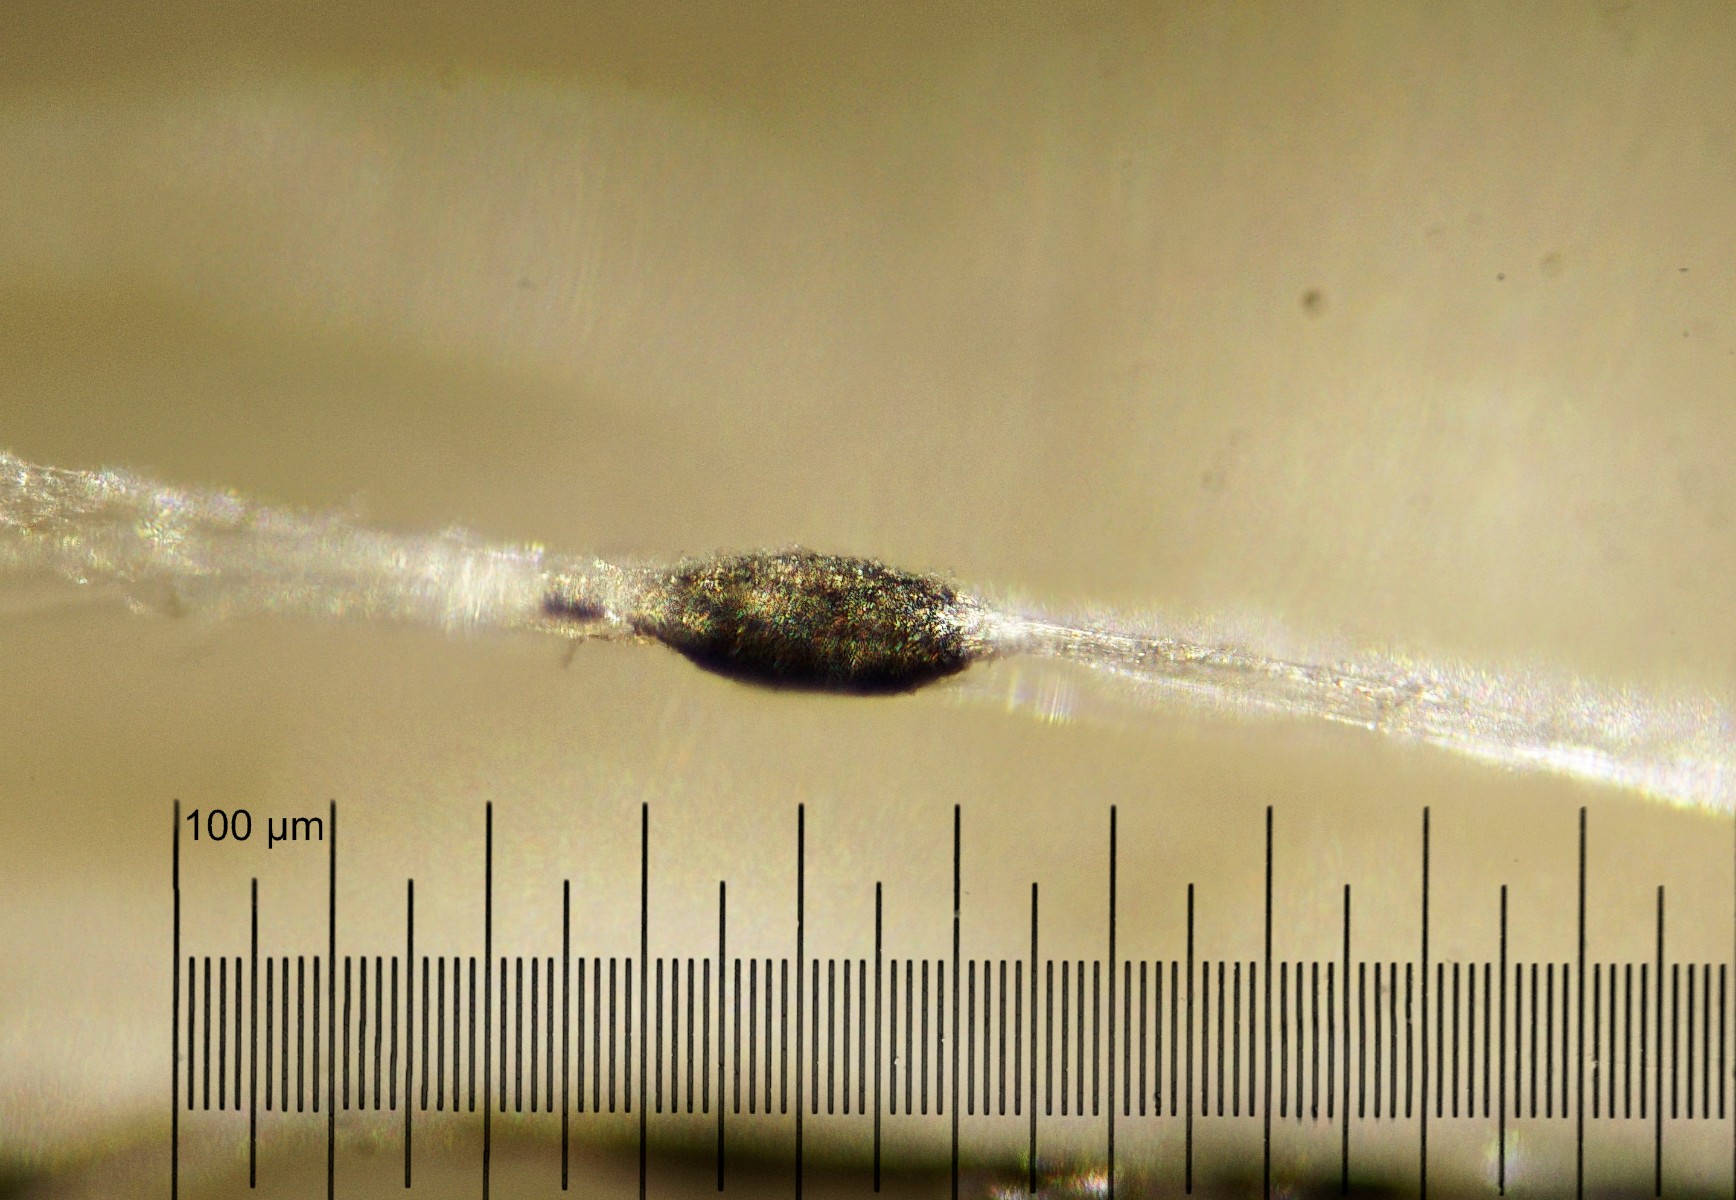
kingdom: Fungi
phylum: Ascomycota
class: Dothideomycetes
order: Pleosporales
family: Leptosphaeriaceae
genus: Leptosphaeria
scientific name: Leptosphaeria acuta
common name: spids kulkegle
